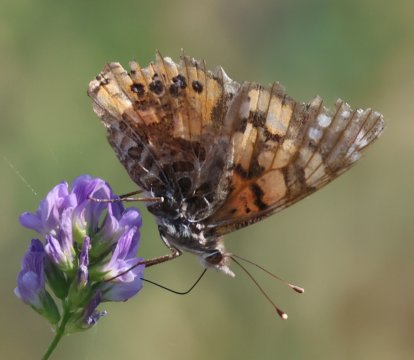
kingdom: Animalia
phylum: Arthropoda
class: Insecta
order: Lepidoptera
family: Nymphalidae
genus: Vanessa
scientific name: Vanessa annabella
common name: West Coast Lady
